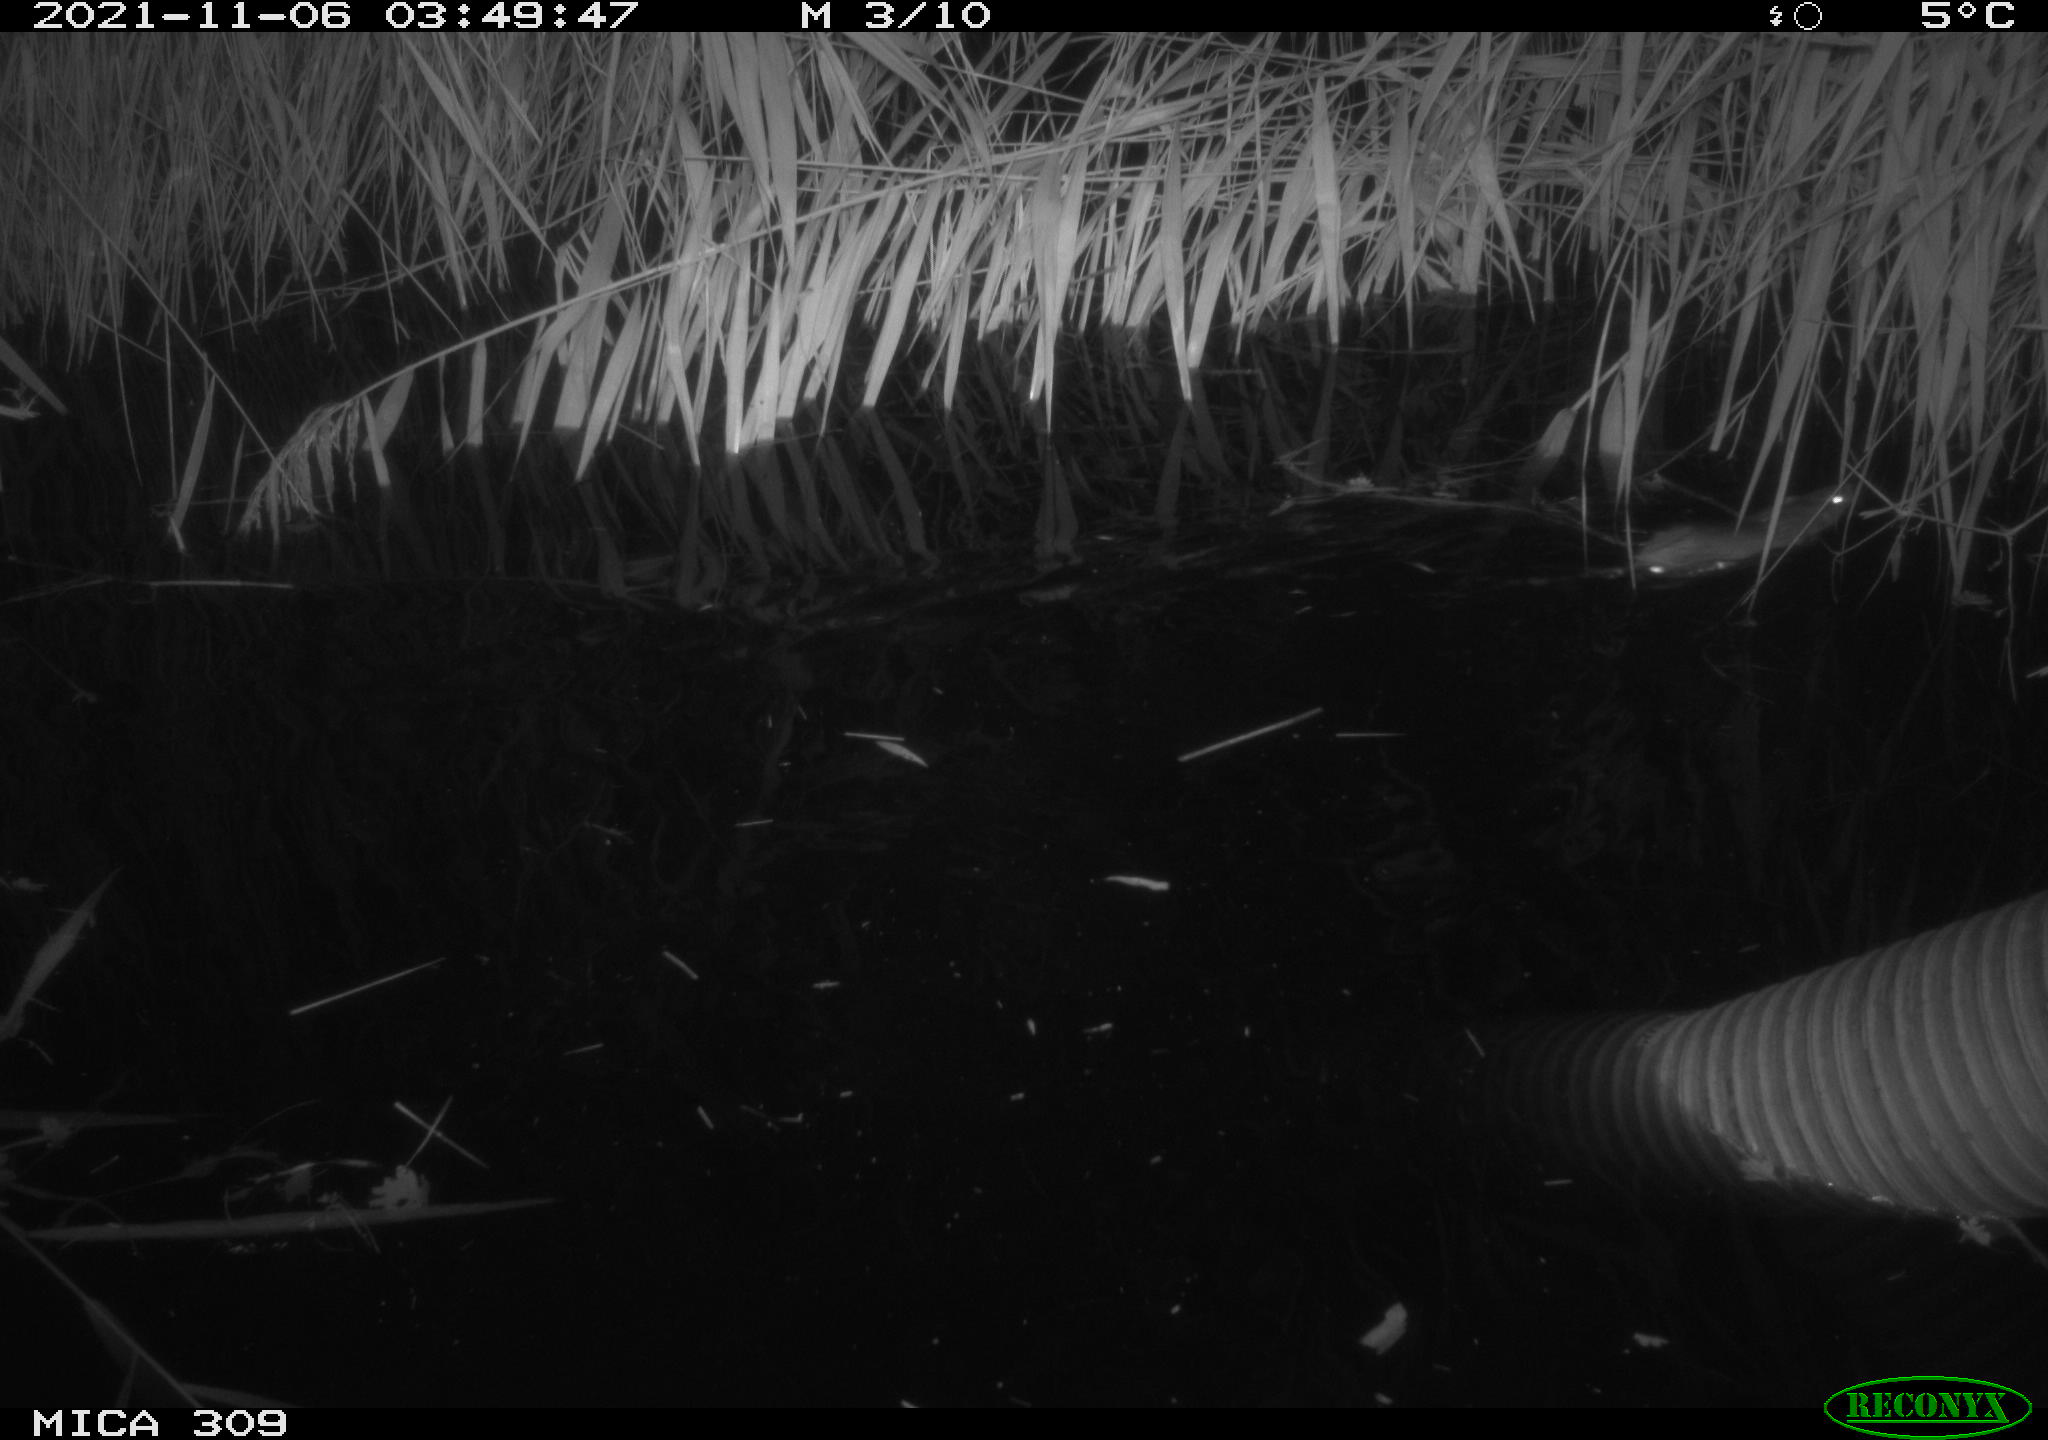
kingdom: Animalia
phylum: Chordata
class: Mammalia
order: Rodentia
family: Muridae
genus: Rattus
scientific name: Rattus norvegicus
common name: Brown rat
